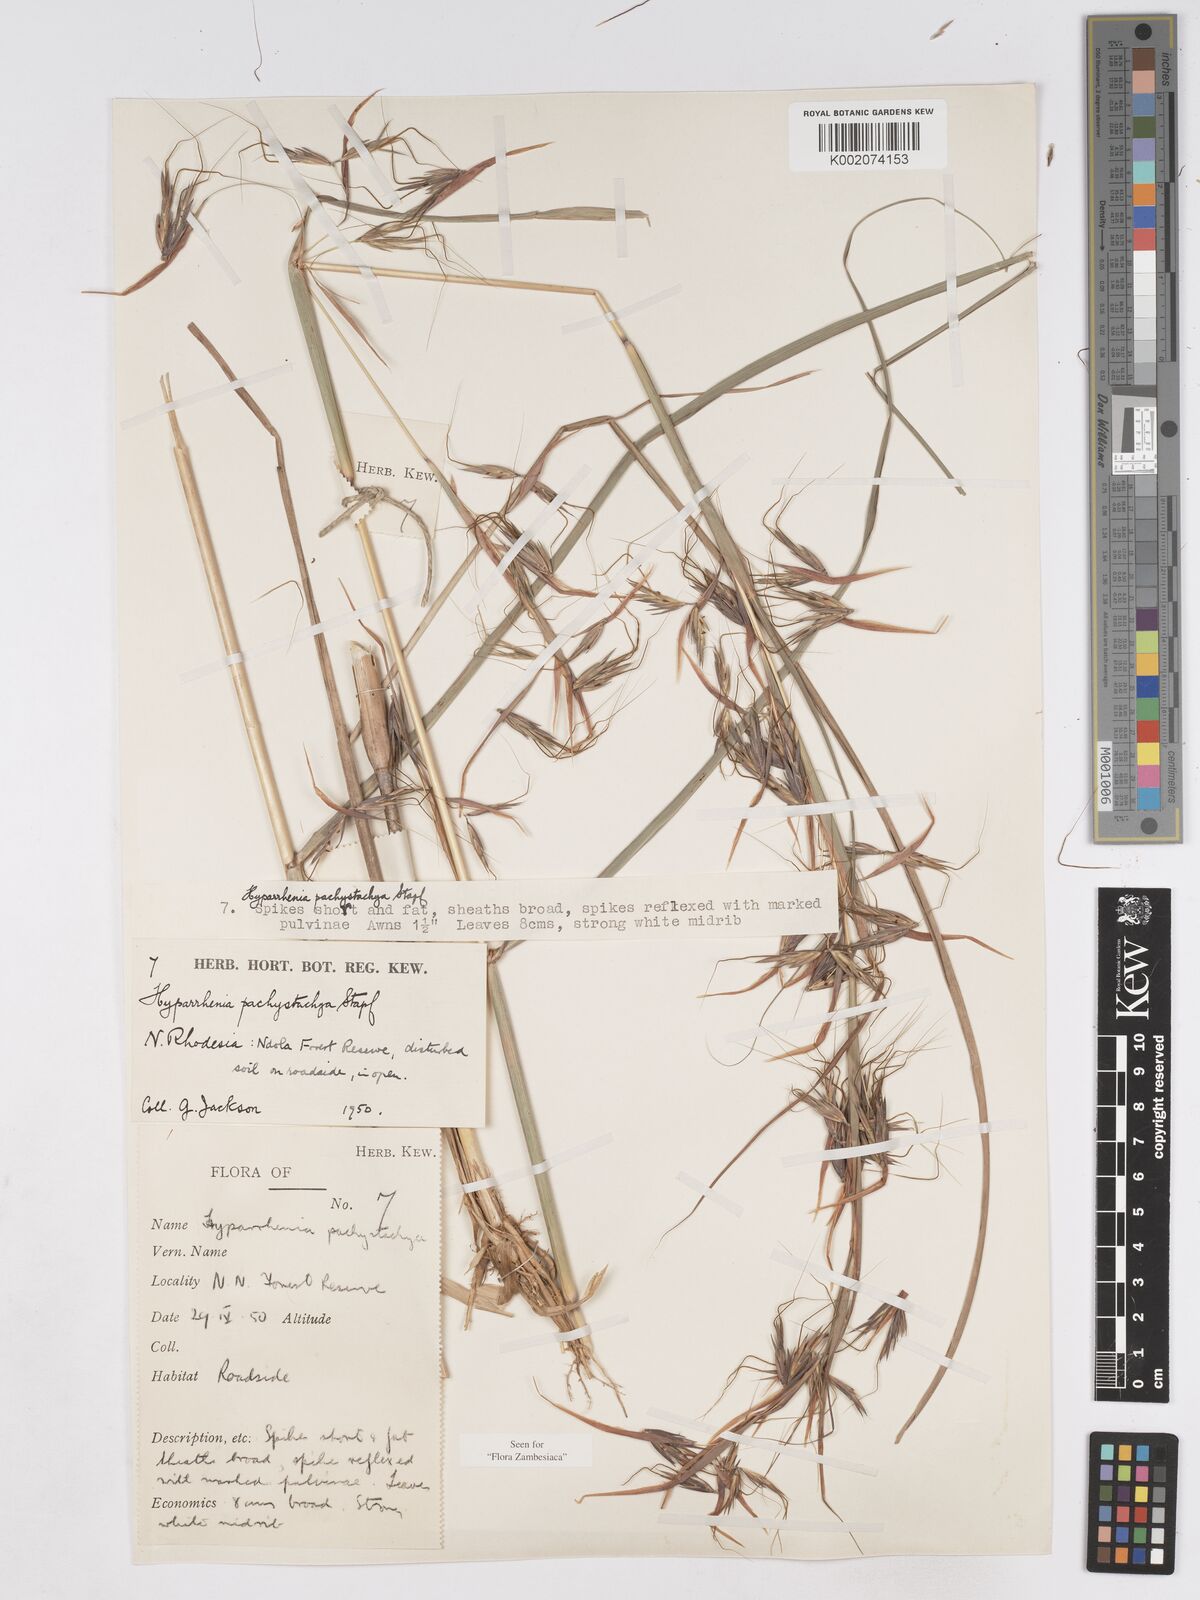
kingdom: Plantae
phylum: Tracheophyta
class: Liliopsida
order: Poales
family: Poaceae
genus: Hyparrhenia
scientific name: Hyparrhenia diplandra
